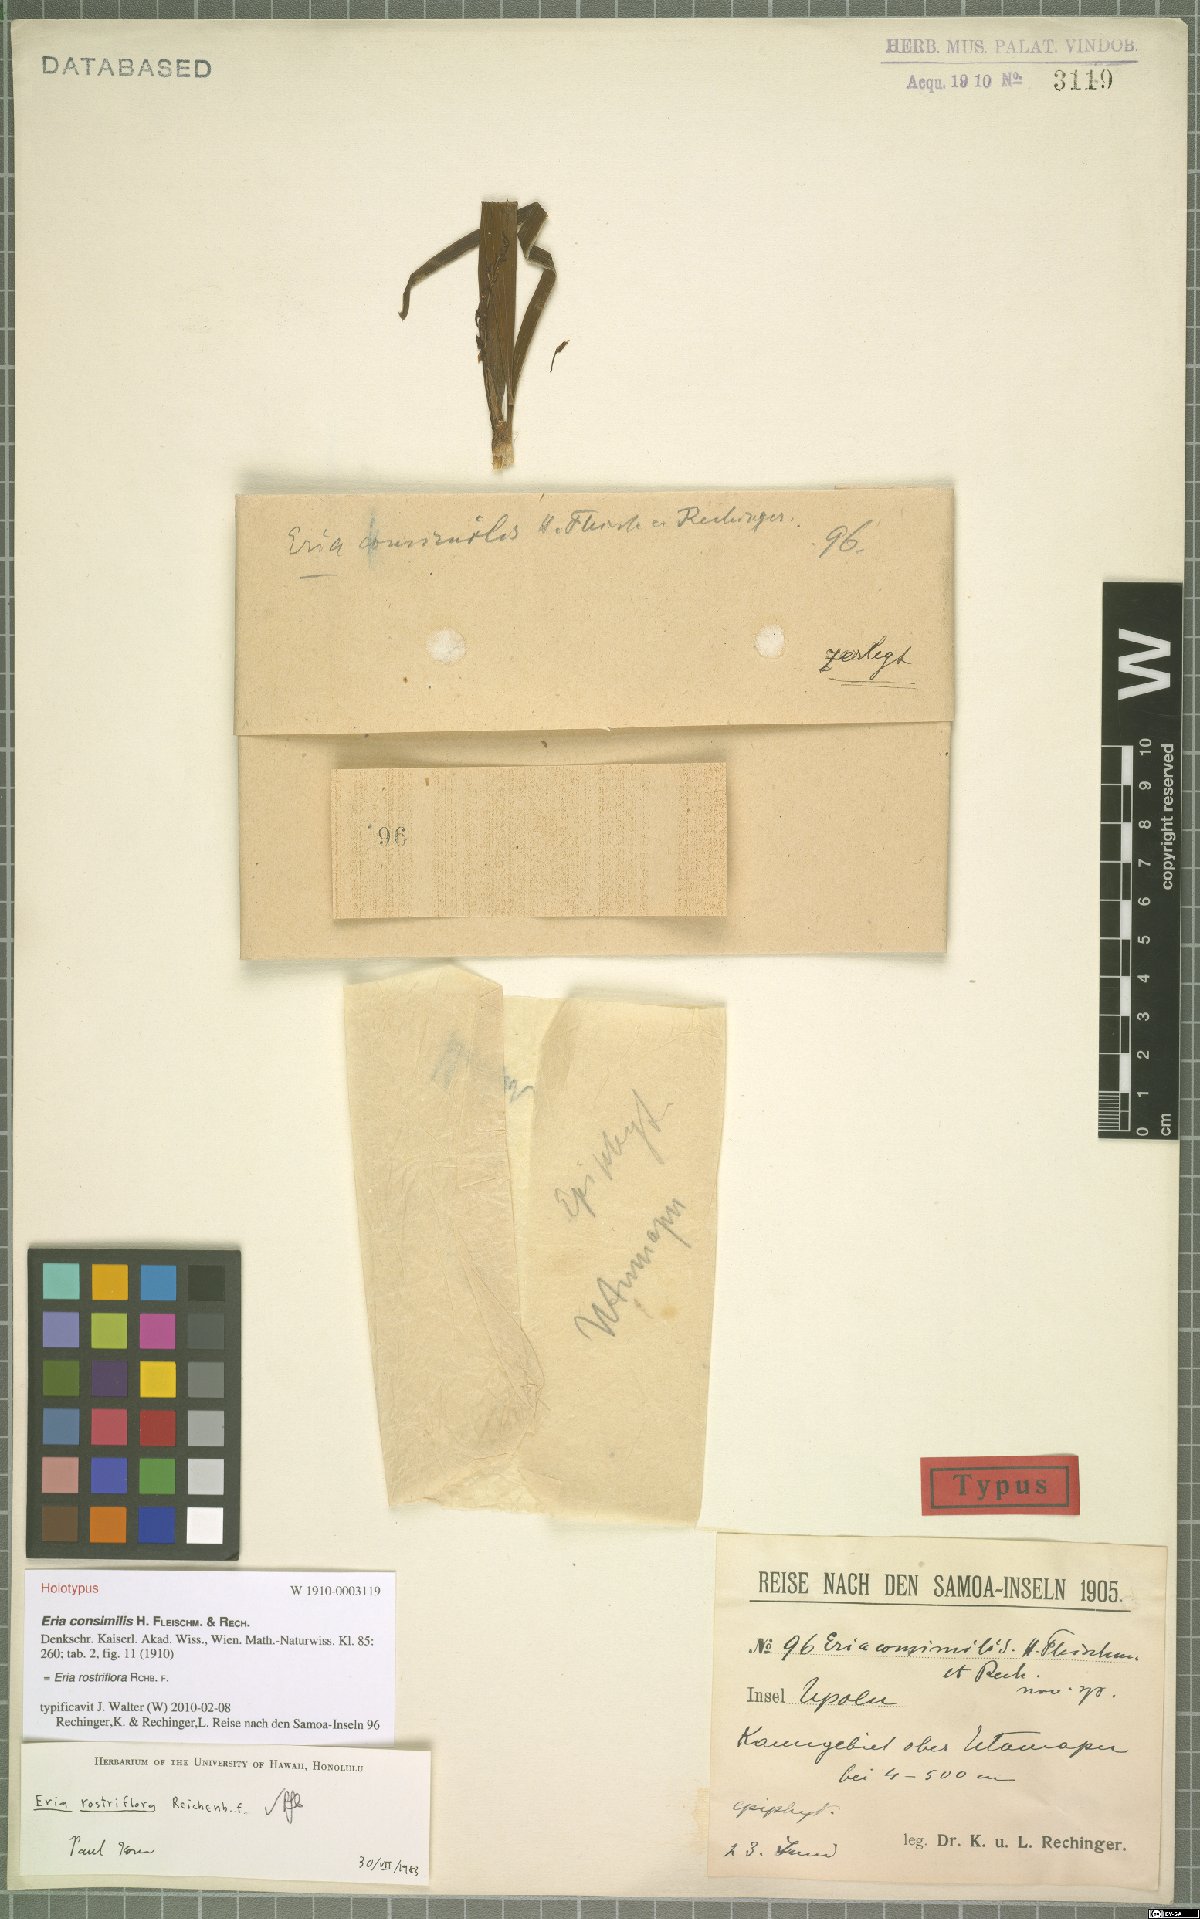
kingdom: Plantae
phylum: Tracheophyta
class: Liliopsida
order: Asparagales
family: Orchidaceae
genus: Eria
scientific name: Eria rostriflora
